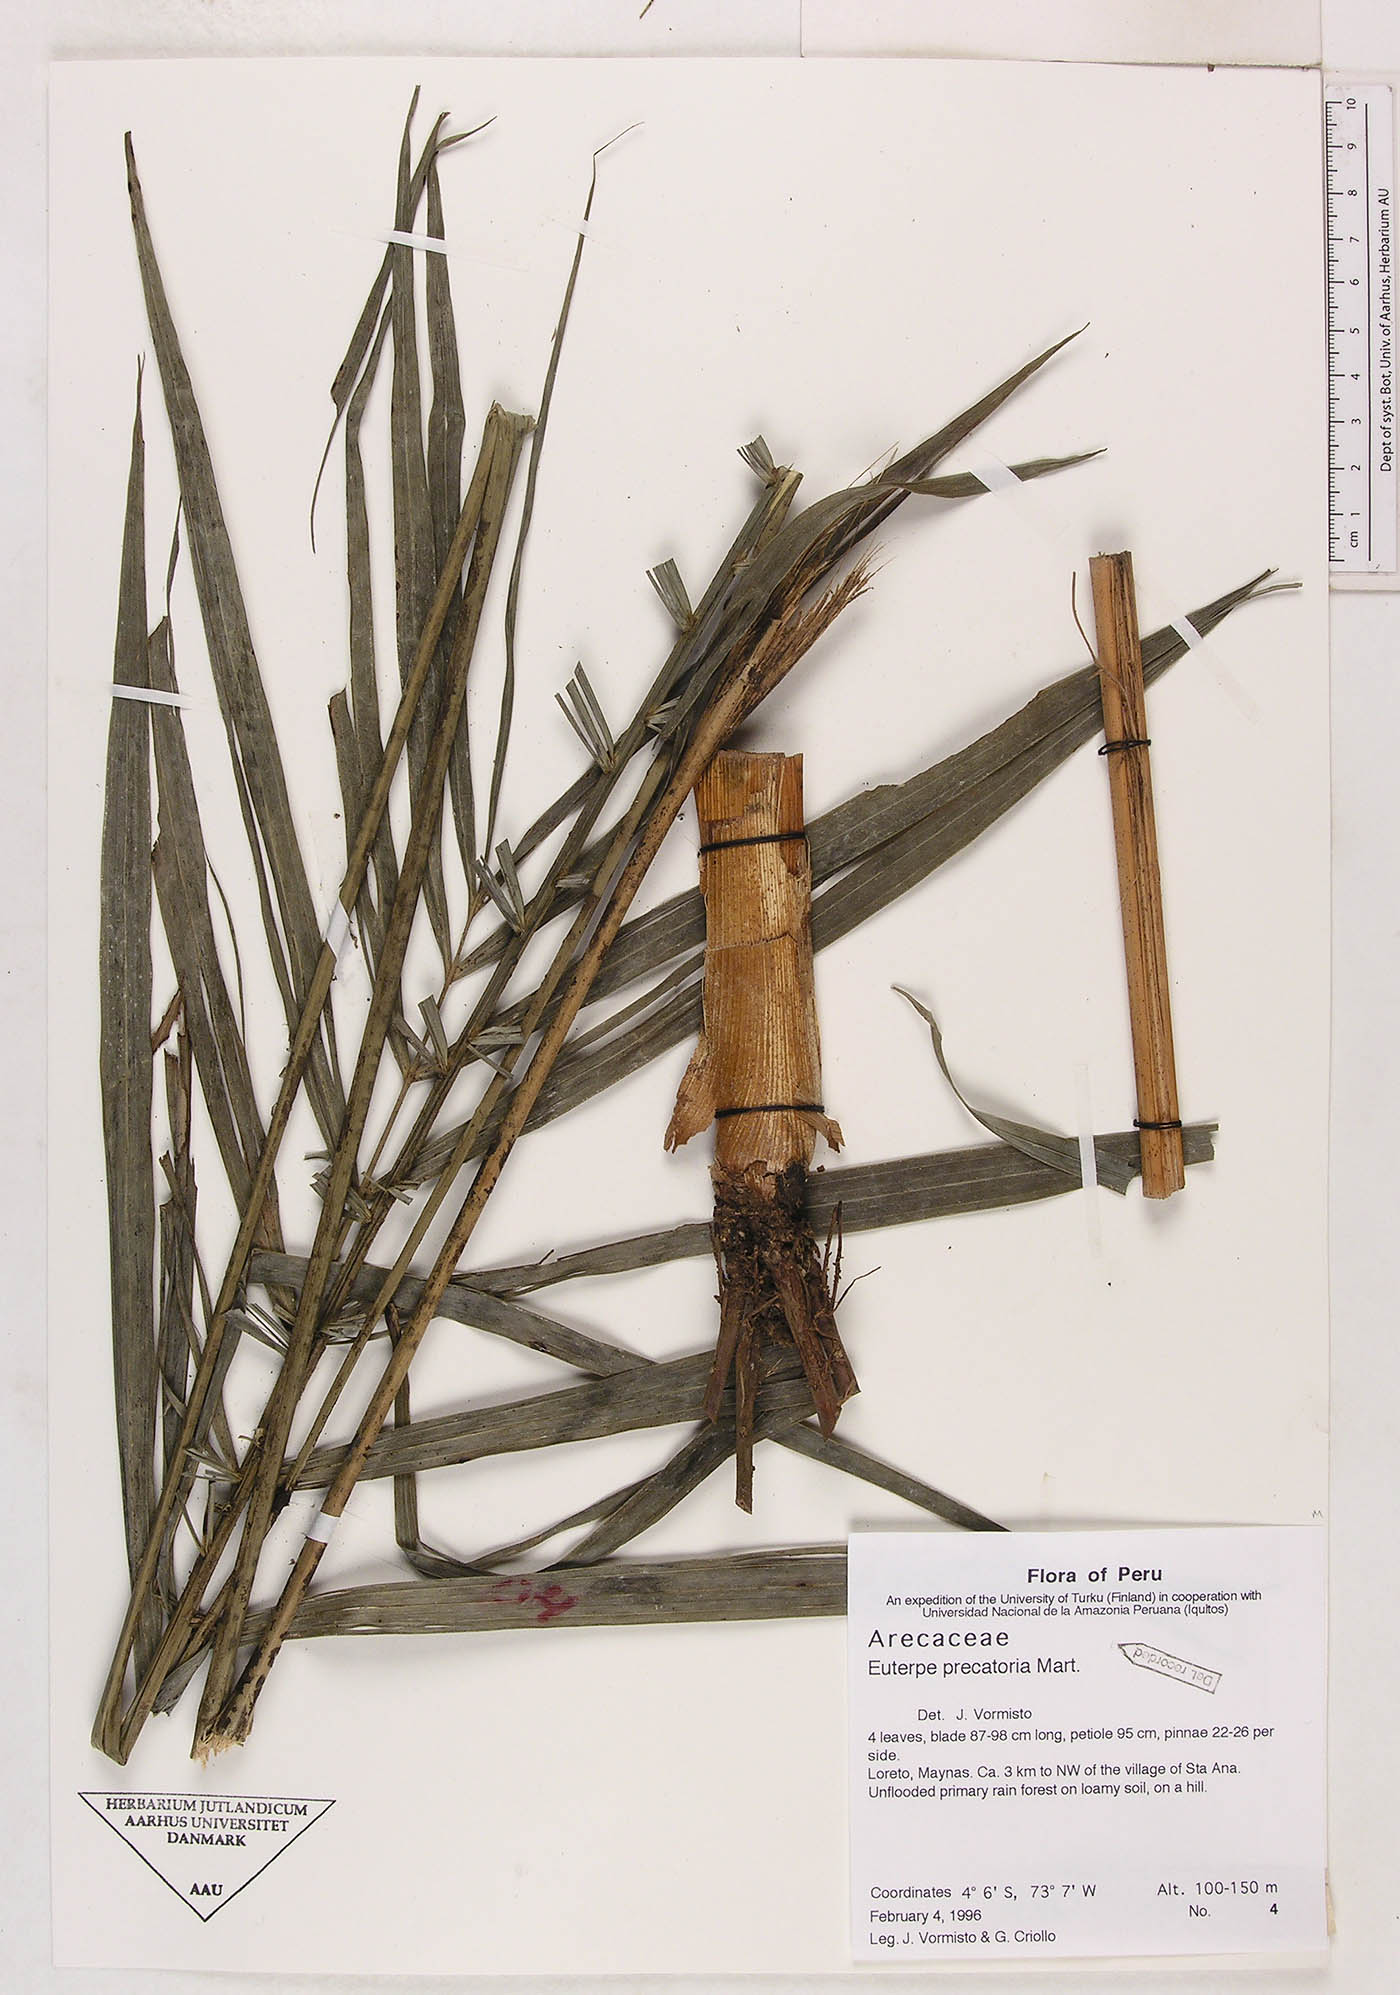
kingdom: Plantae
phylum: Tracheophyta
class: Liliopsida
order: Arecales
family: Arecaceae
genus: Euterpe
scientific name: Euterpe precatoria
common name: Mountain-cabbage
